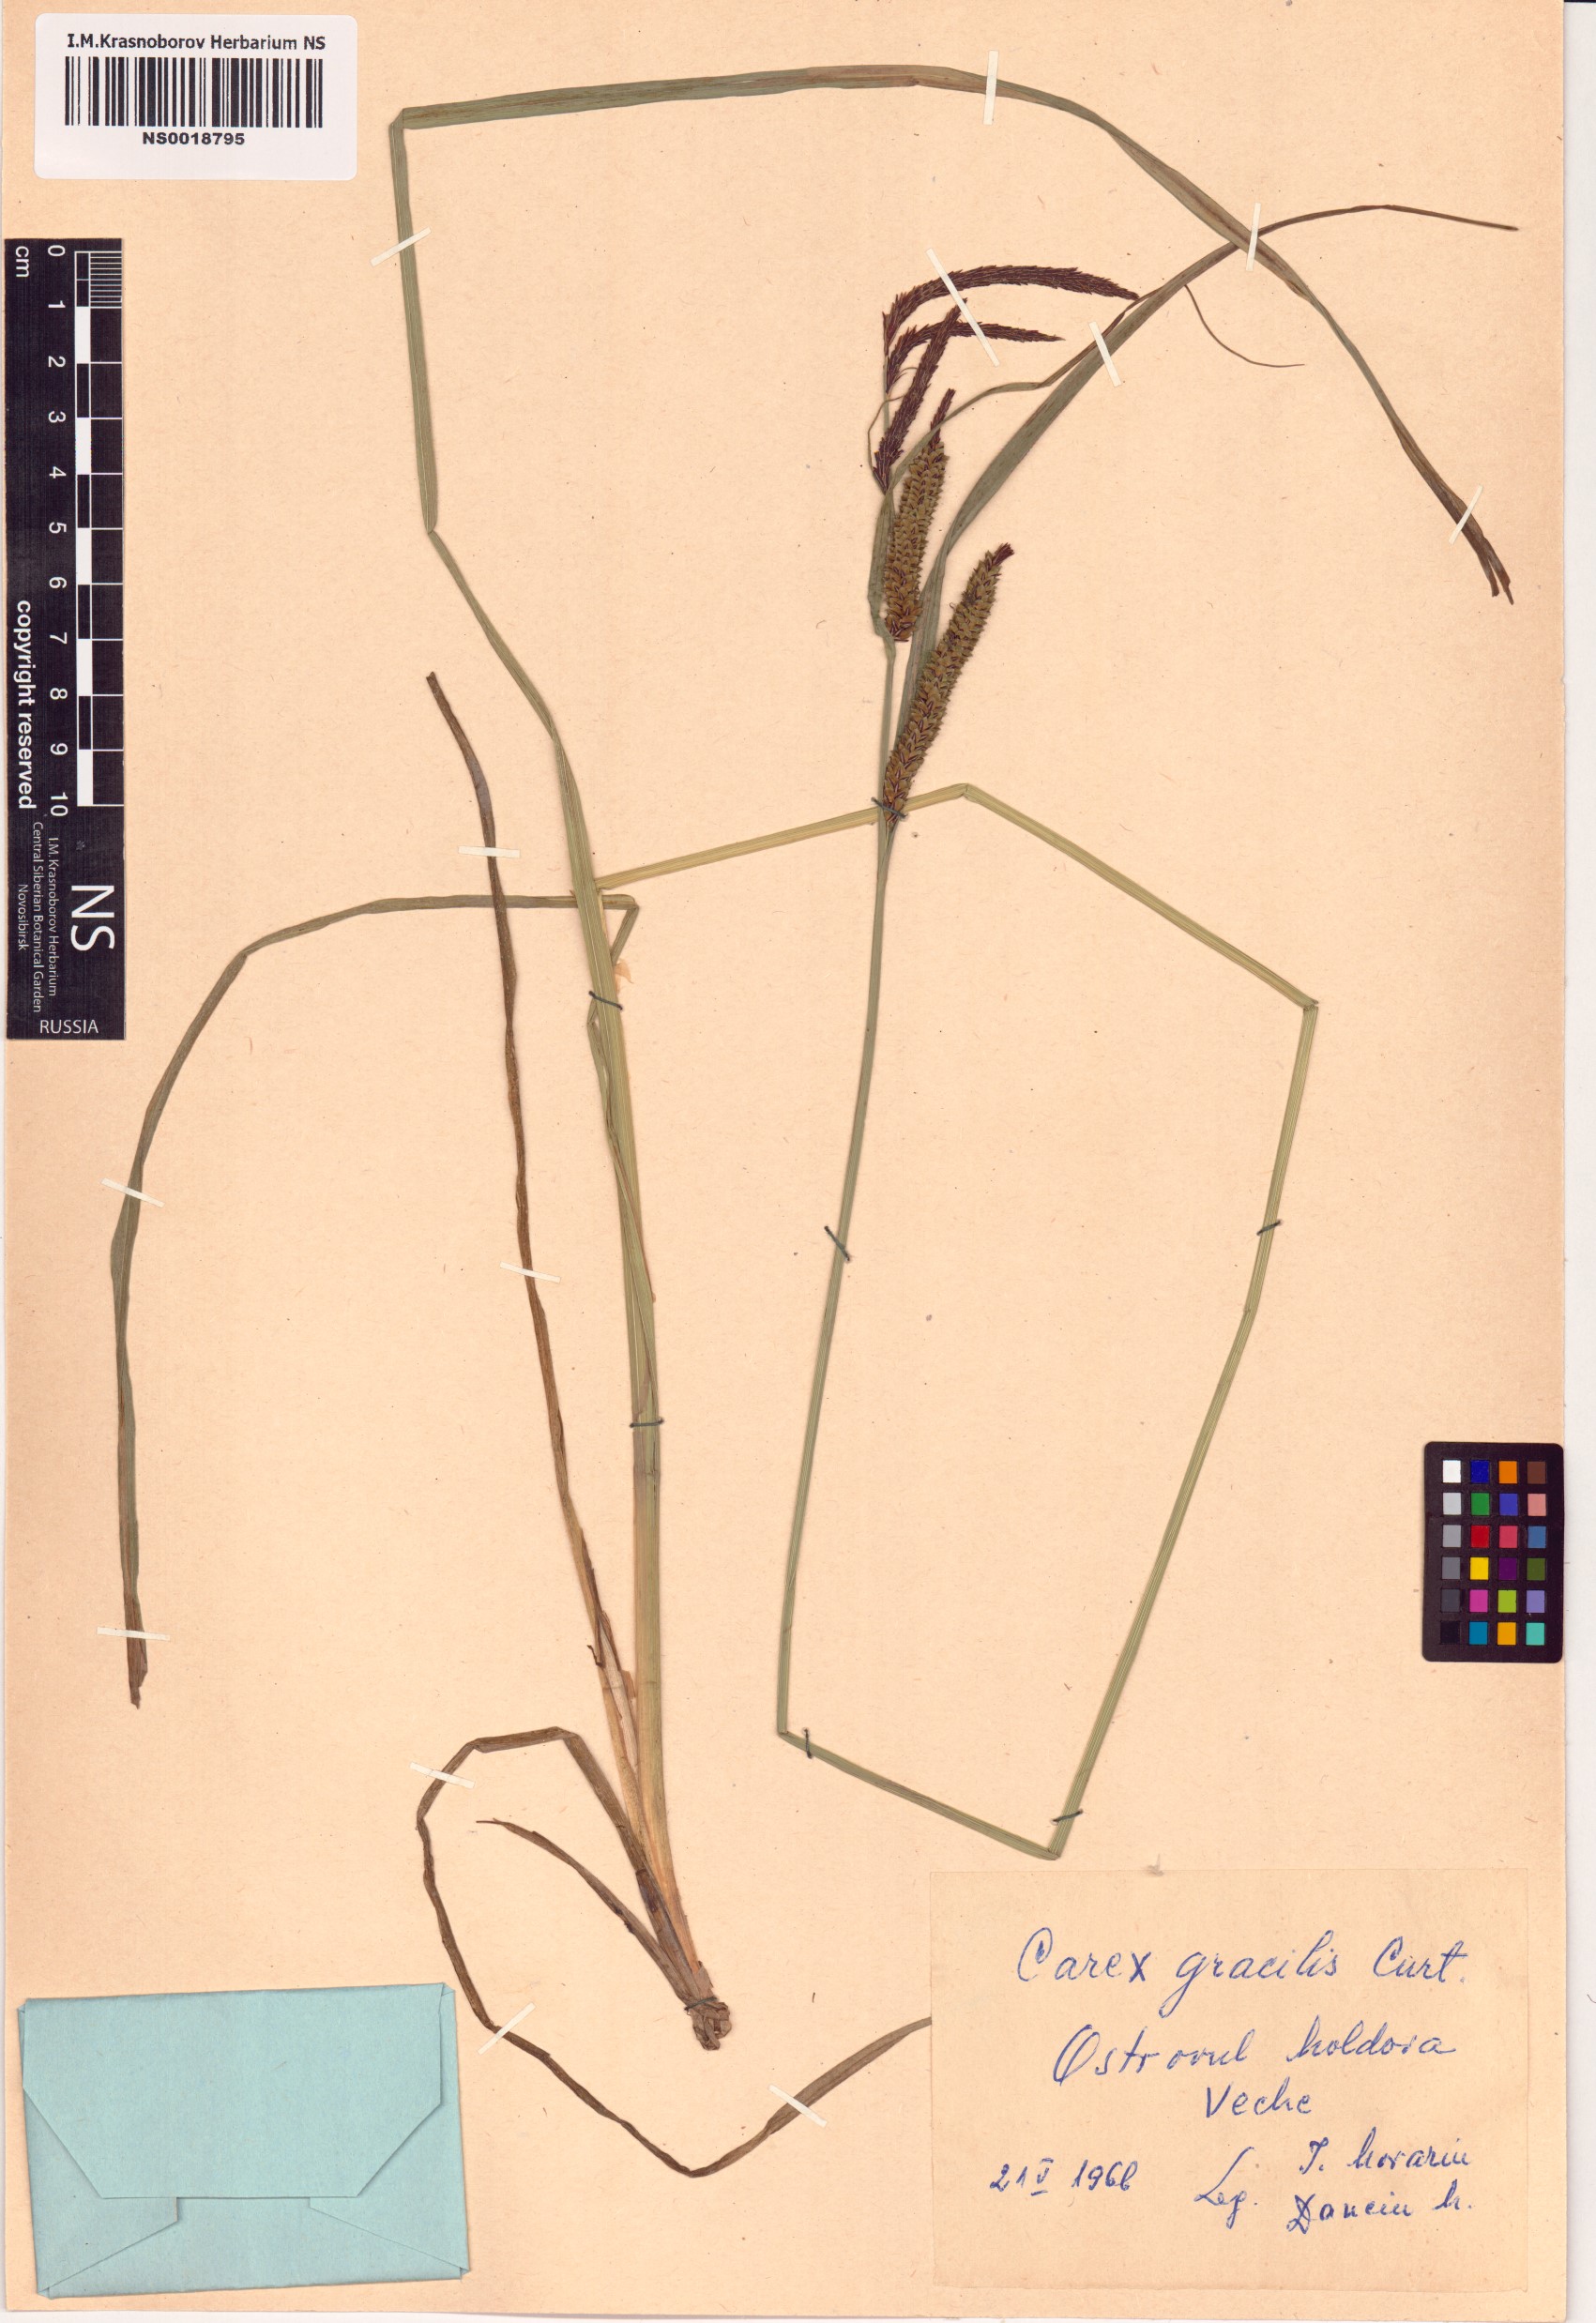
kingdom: Plantae
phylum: Tracheophyta
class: Liliopsida
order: Poales
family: Cyperaceae
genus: Carex
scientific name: Carex acuta
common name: Slender tufted-sedge
